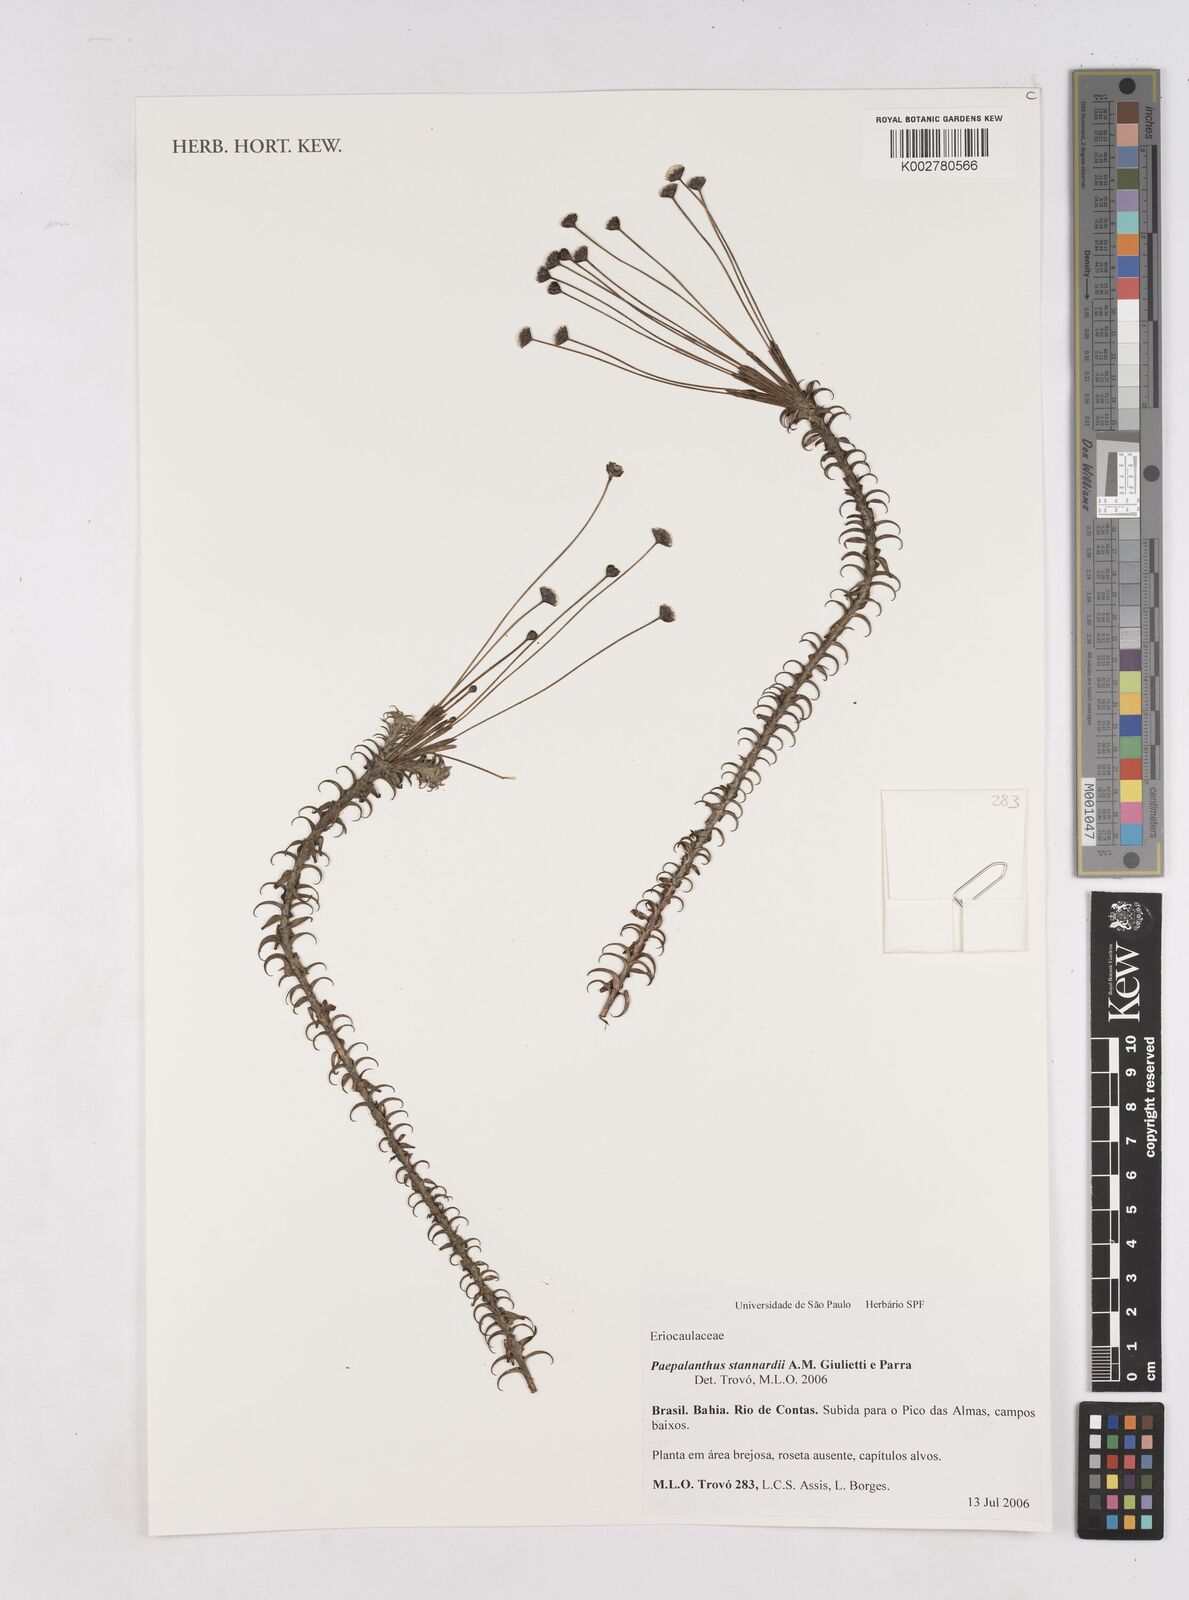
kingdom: Plantae
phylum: Tracheophyta
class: Liliopsida
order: Poales
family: Eriocaulaceae
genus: Paepalanthus
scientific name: Paepalanthus stannardii
